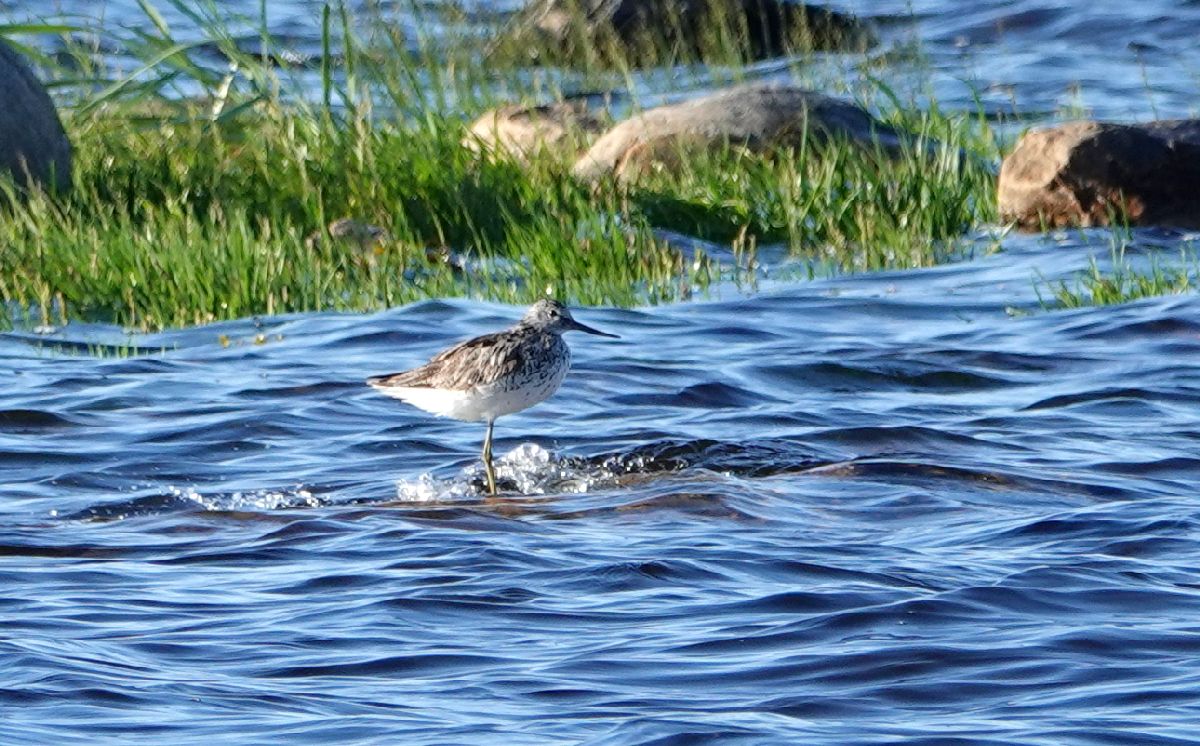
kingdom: Animalia
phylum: Chordata
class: Aves
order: Charadriiformes
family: Scolopacidae
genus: Tringa
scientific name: Tringa nebularia
